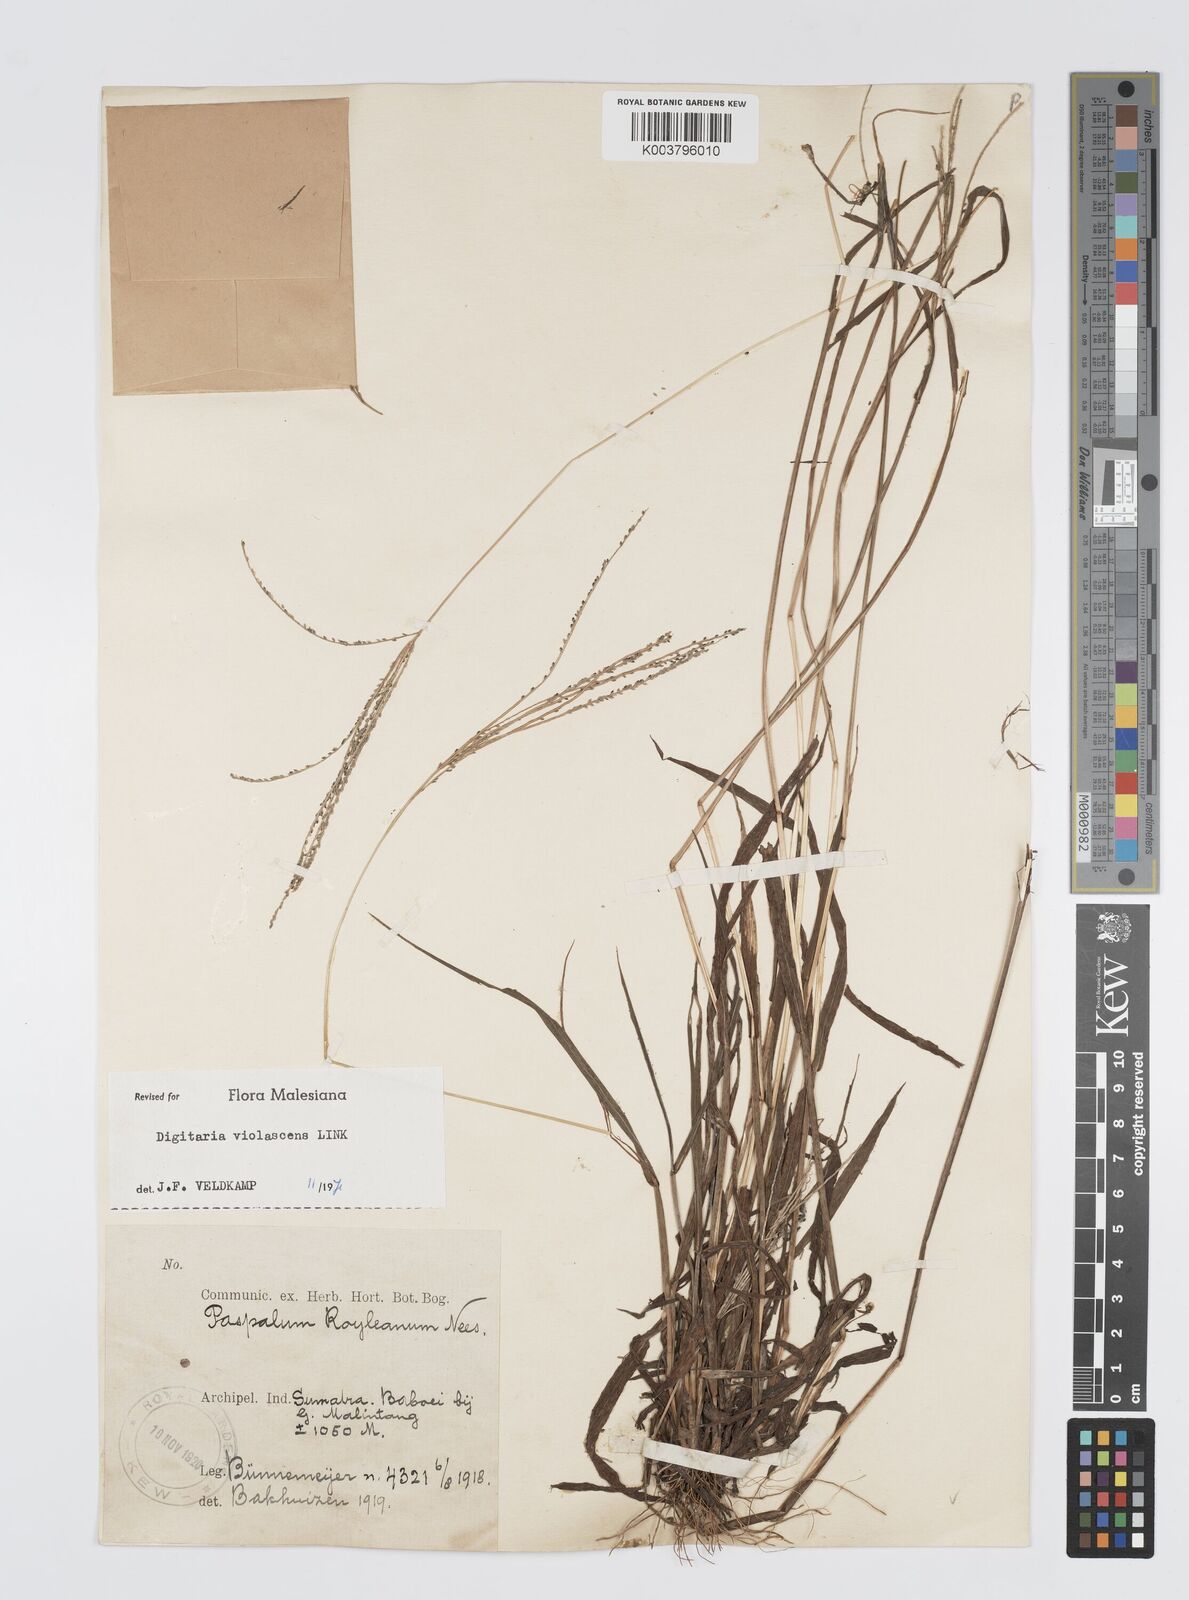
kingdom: Plantae
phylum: Tracheophyta
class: Liliopsida
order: Poales
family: Poaceae
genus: Digitaria
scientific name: Digitaria violascens
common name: Violet crabgrass
